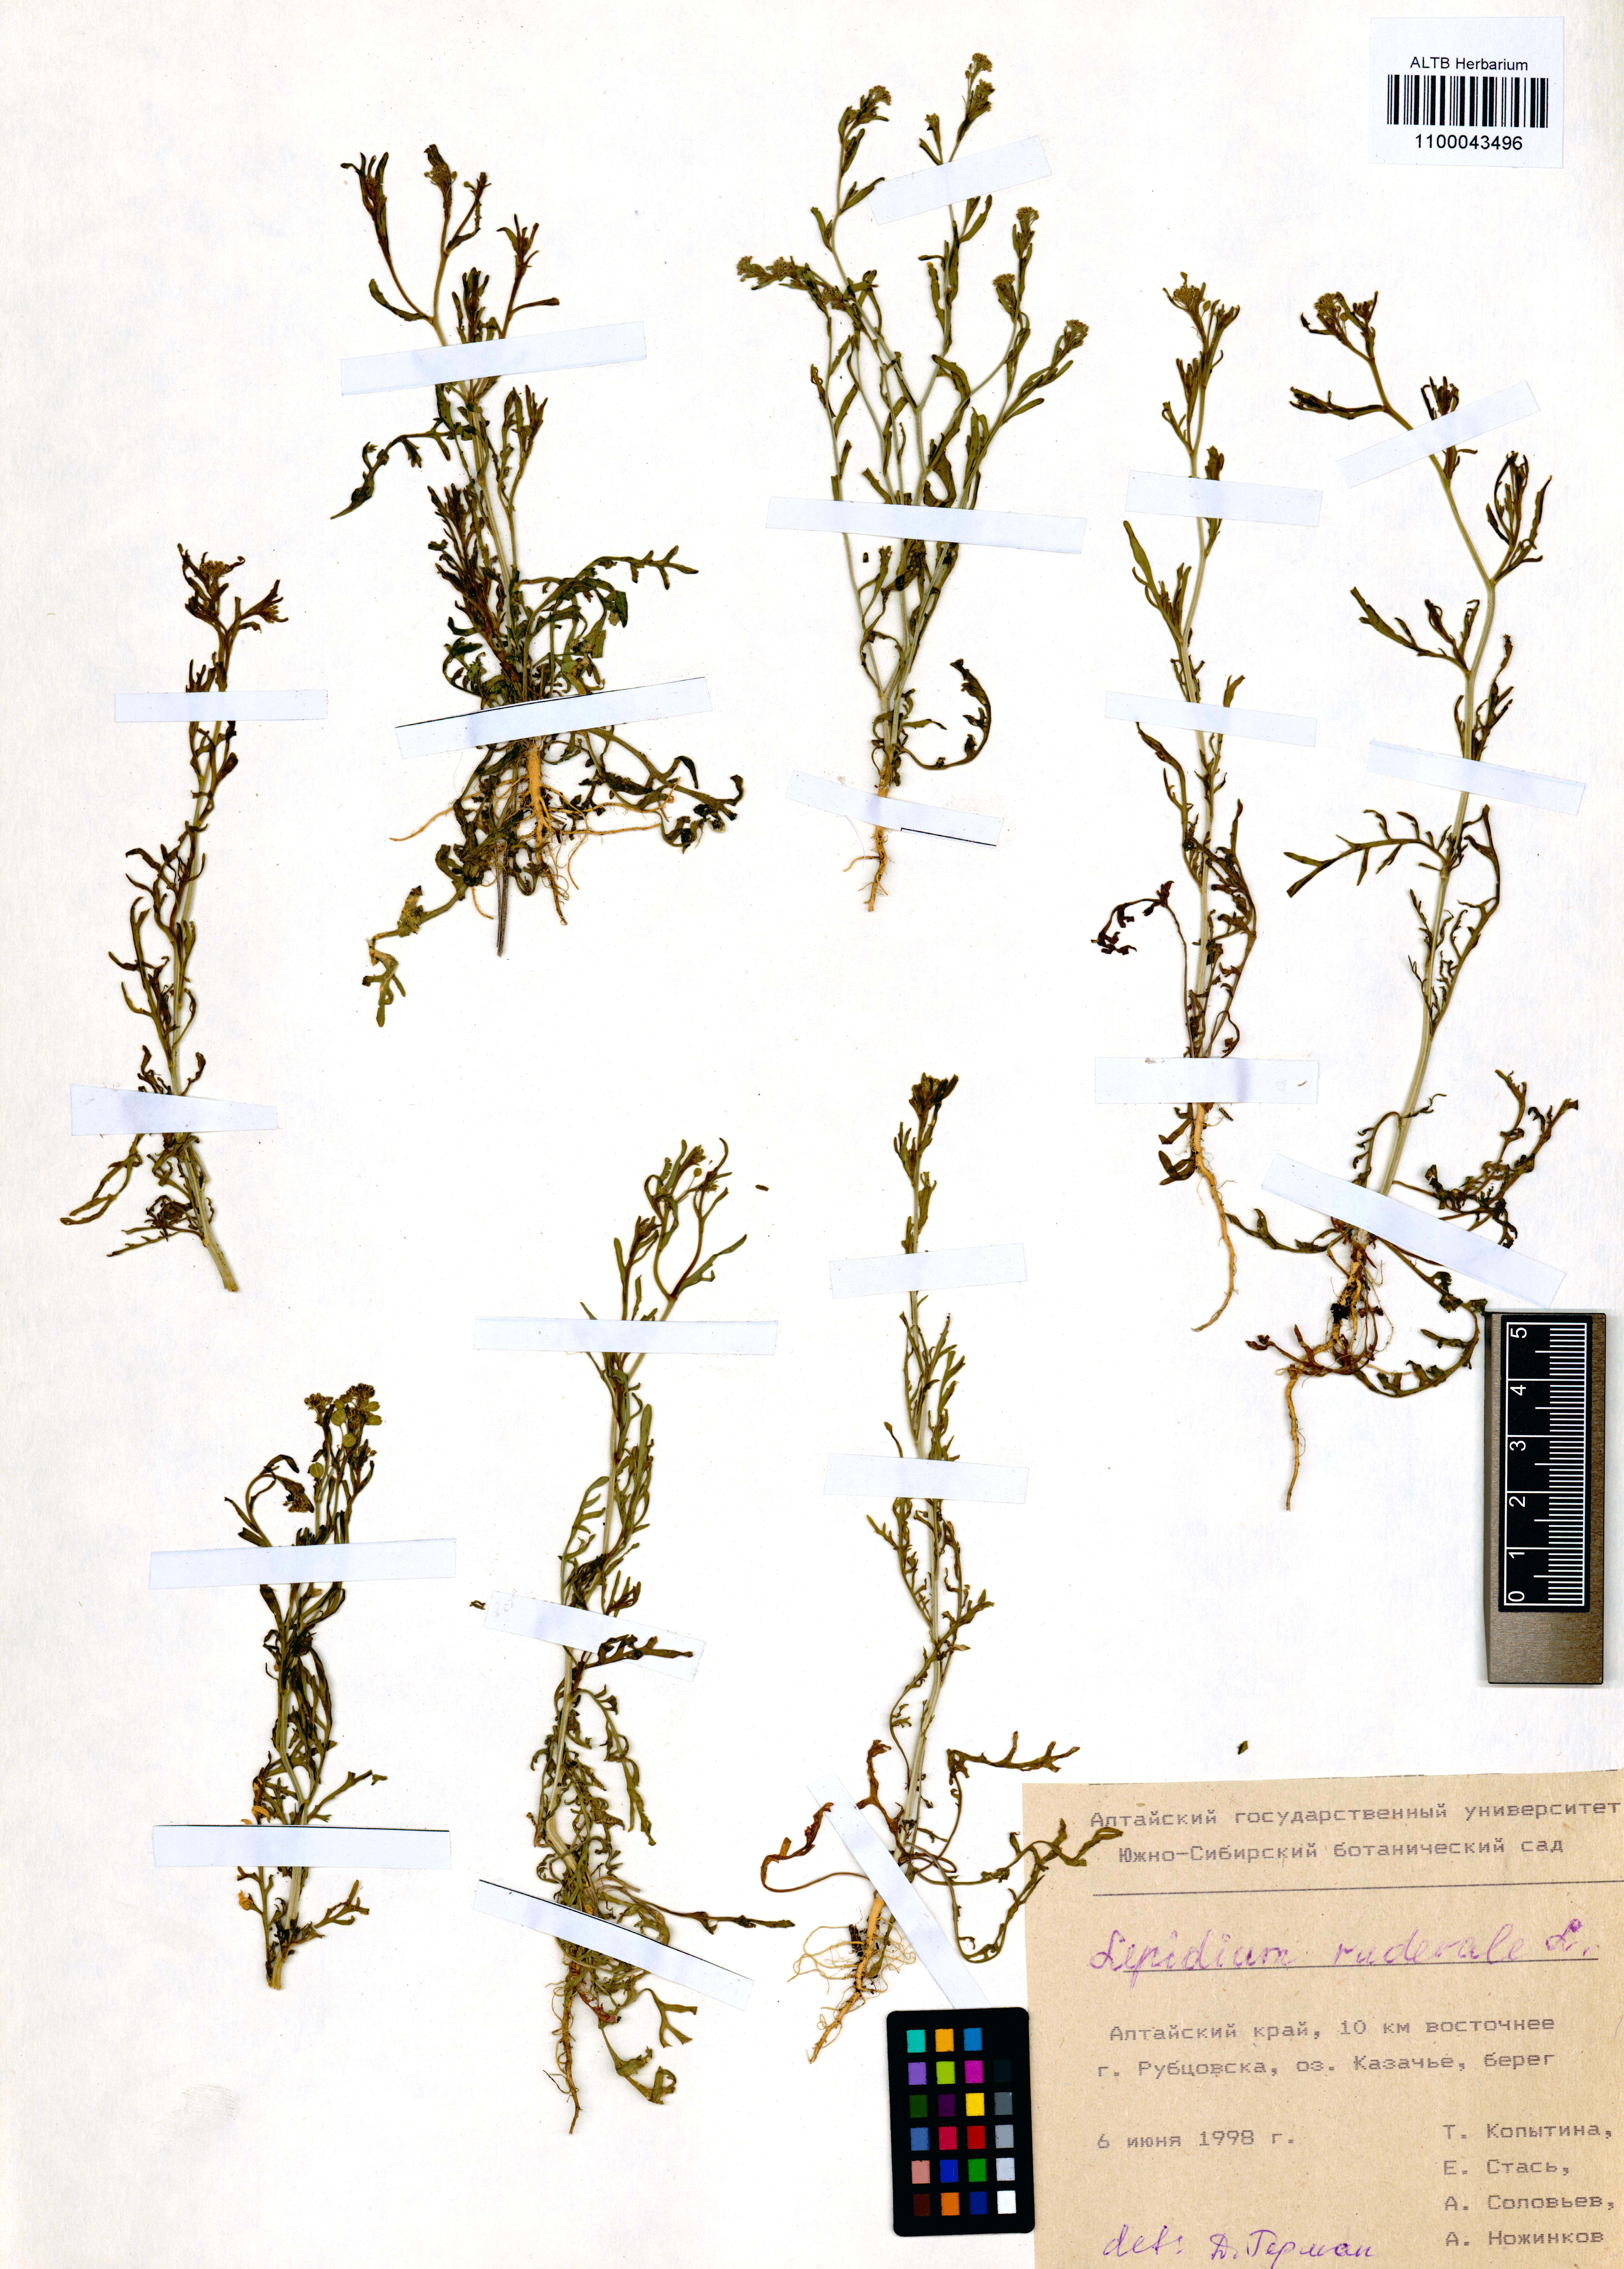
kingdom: Plantae
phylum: Tracheophyta
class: Magnoliopsida
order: Brassicales
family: Brassicaceae
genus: Lepidium
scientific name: Lepidium ruderale
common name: Narrow-leaved pepperwort
